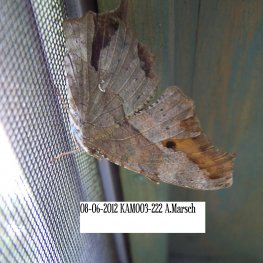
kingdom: Animalia
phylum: Arthropoda
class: Insecta
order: Lepidoptera
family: Nymphalidae
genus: Polygonia
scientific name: Polygonia interrogationis
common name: Question Mark
